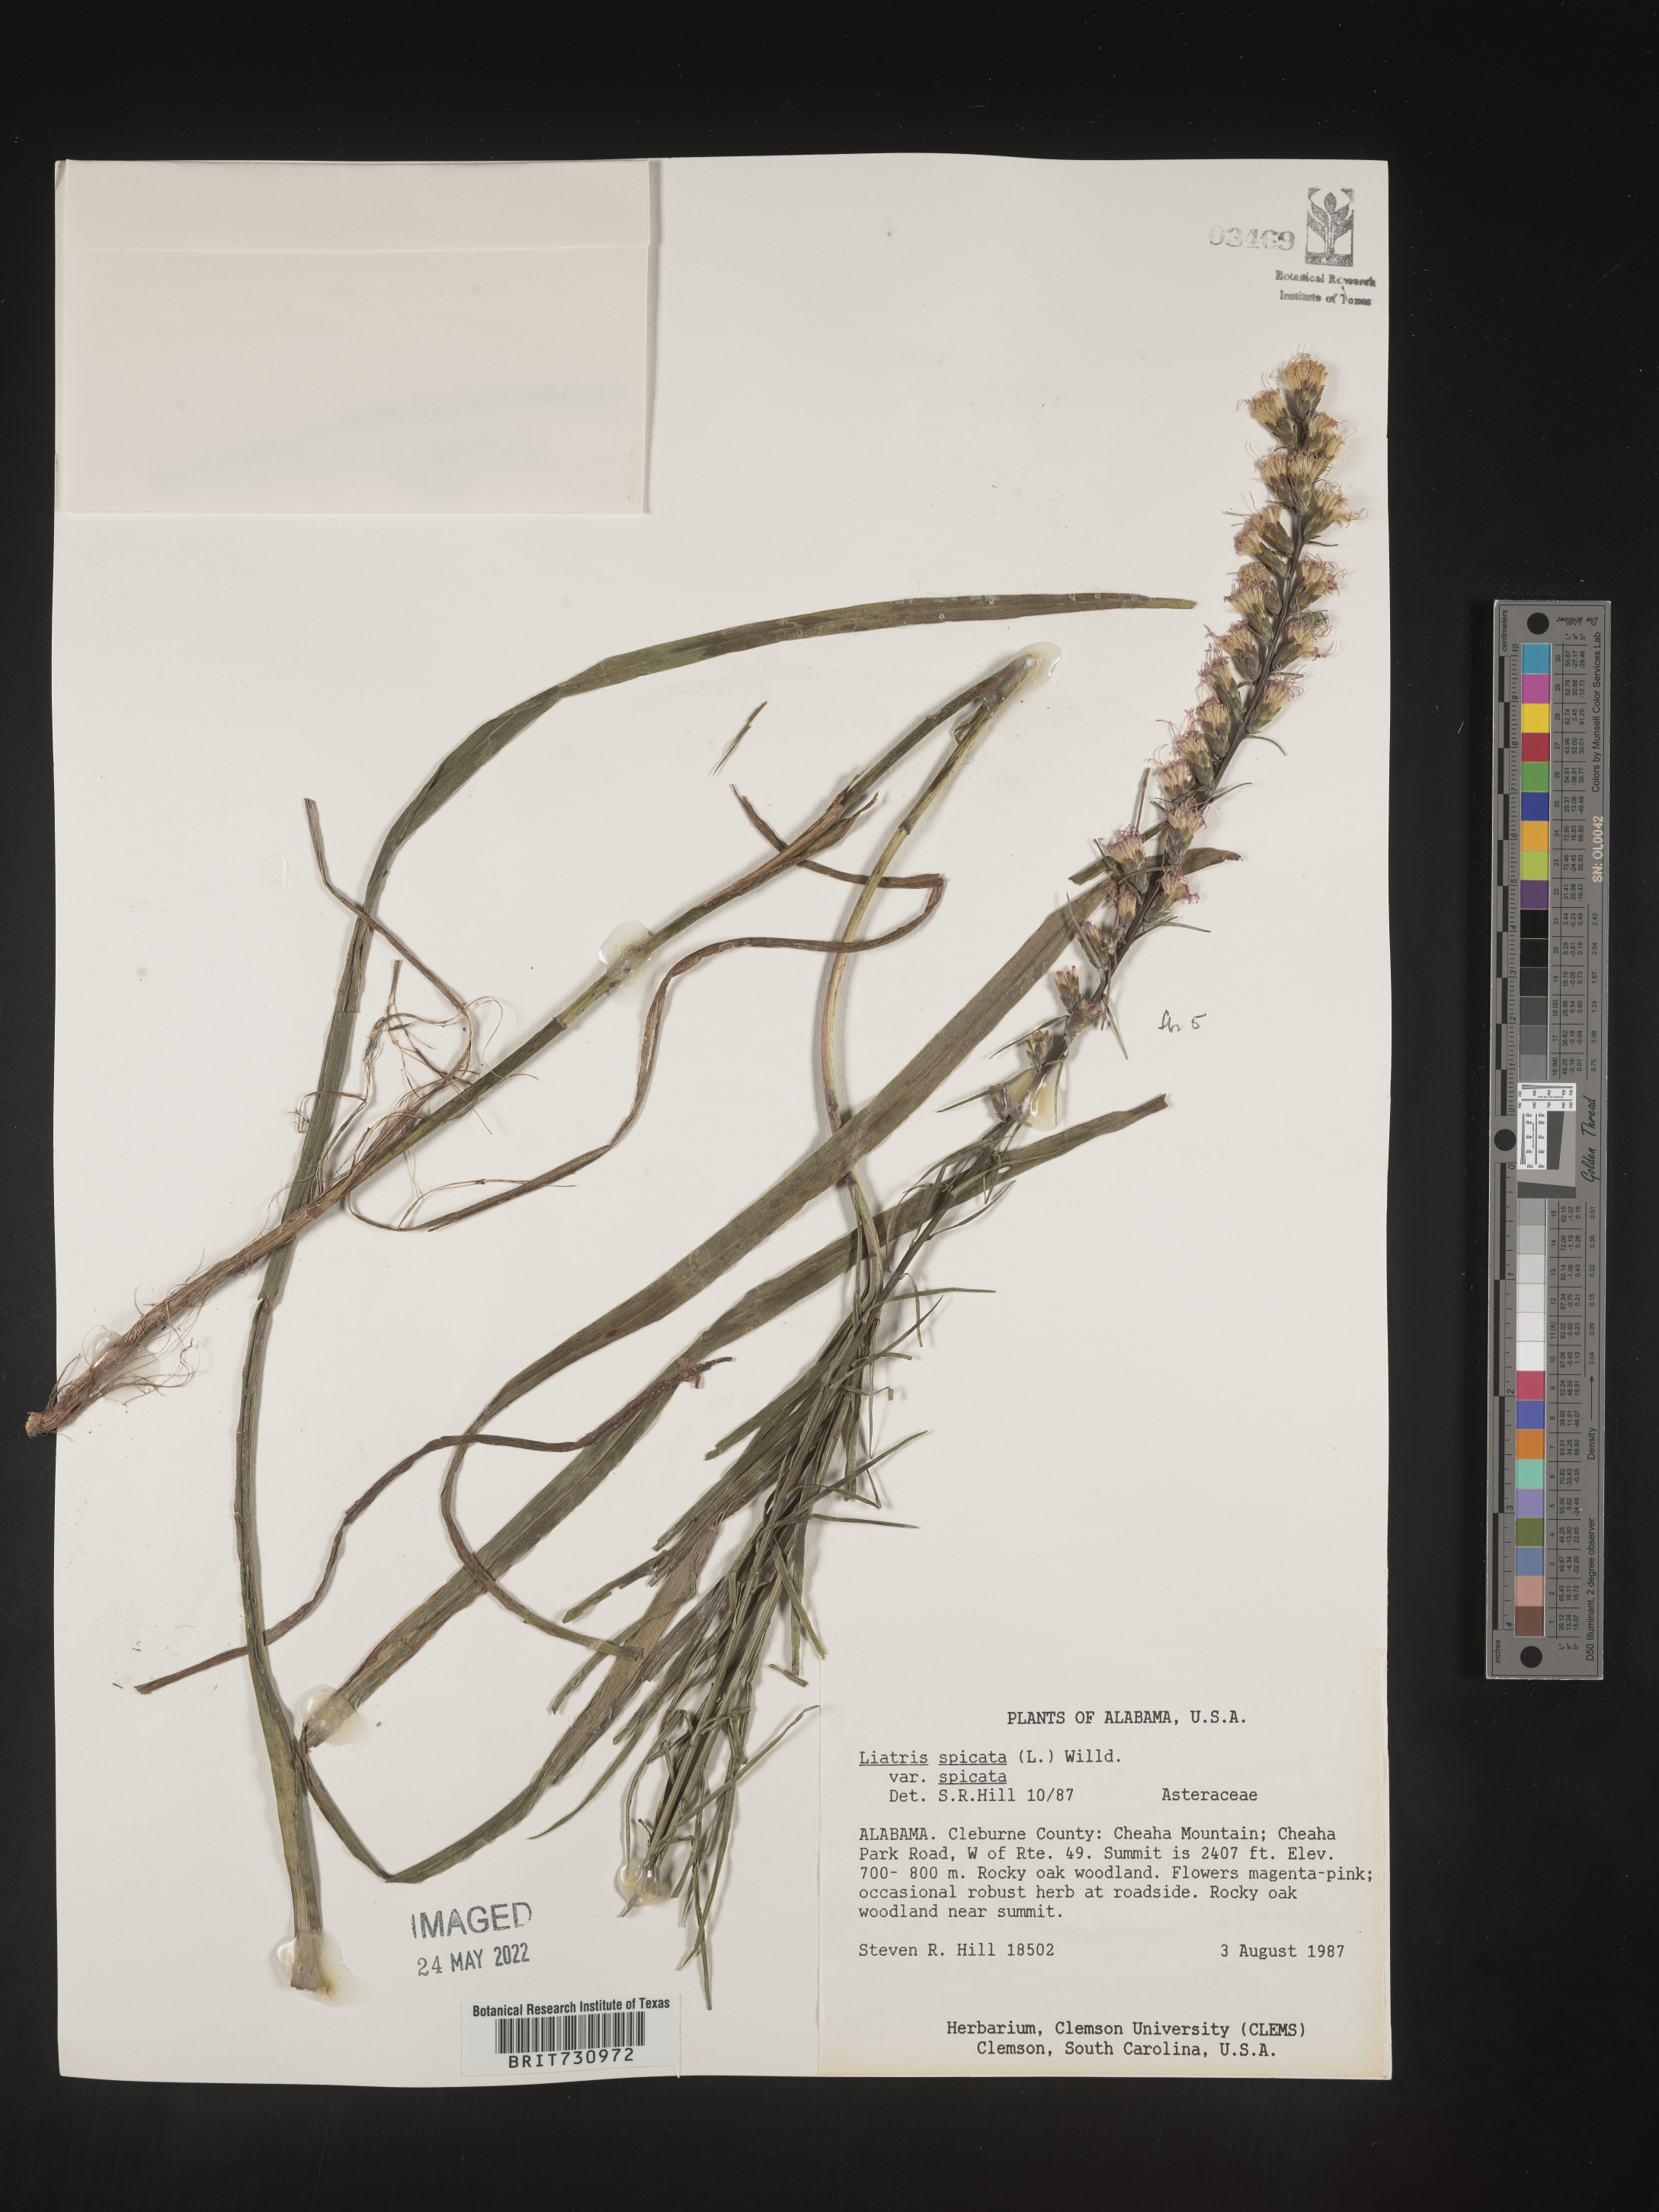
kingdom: Plantae
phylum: Tracheophyta
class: Magnoliopsida
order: Asterales
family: Asteraceae
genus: Liatris
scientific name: Liatris spicata
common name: Florist gayfeather
